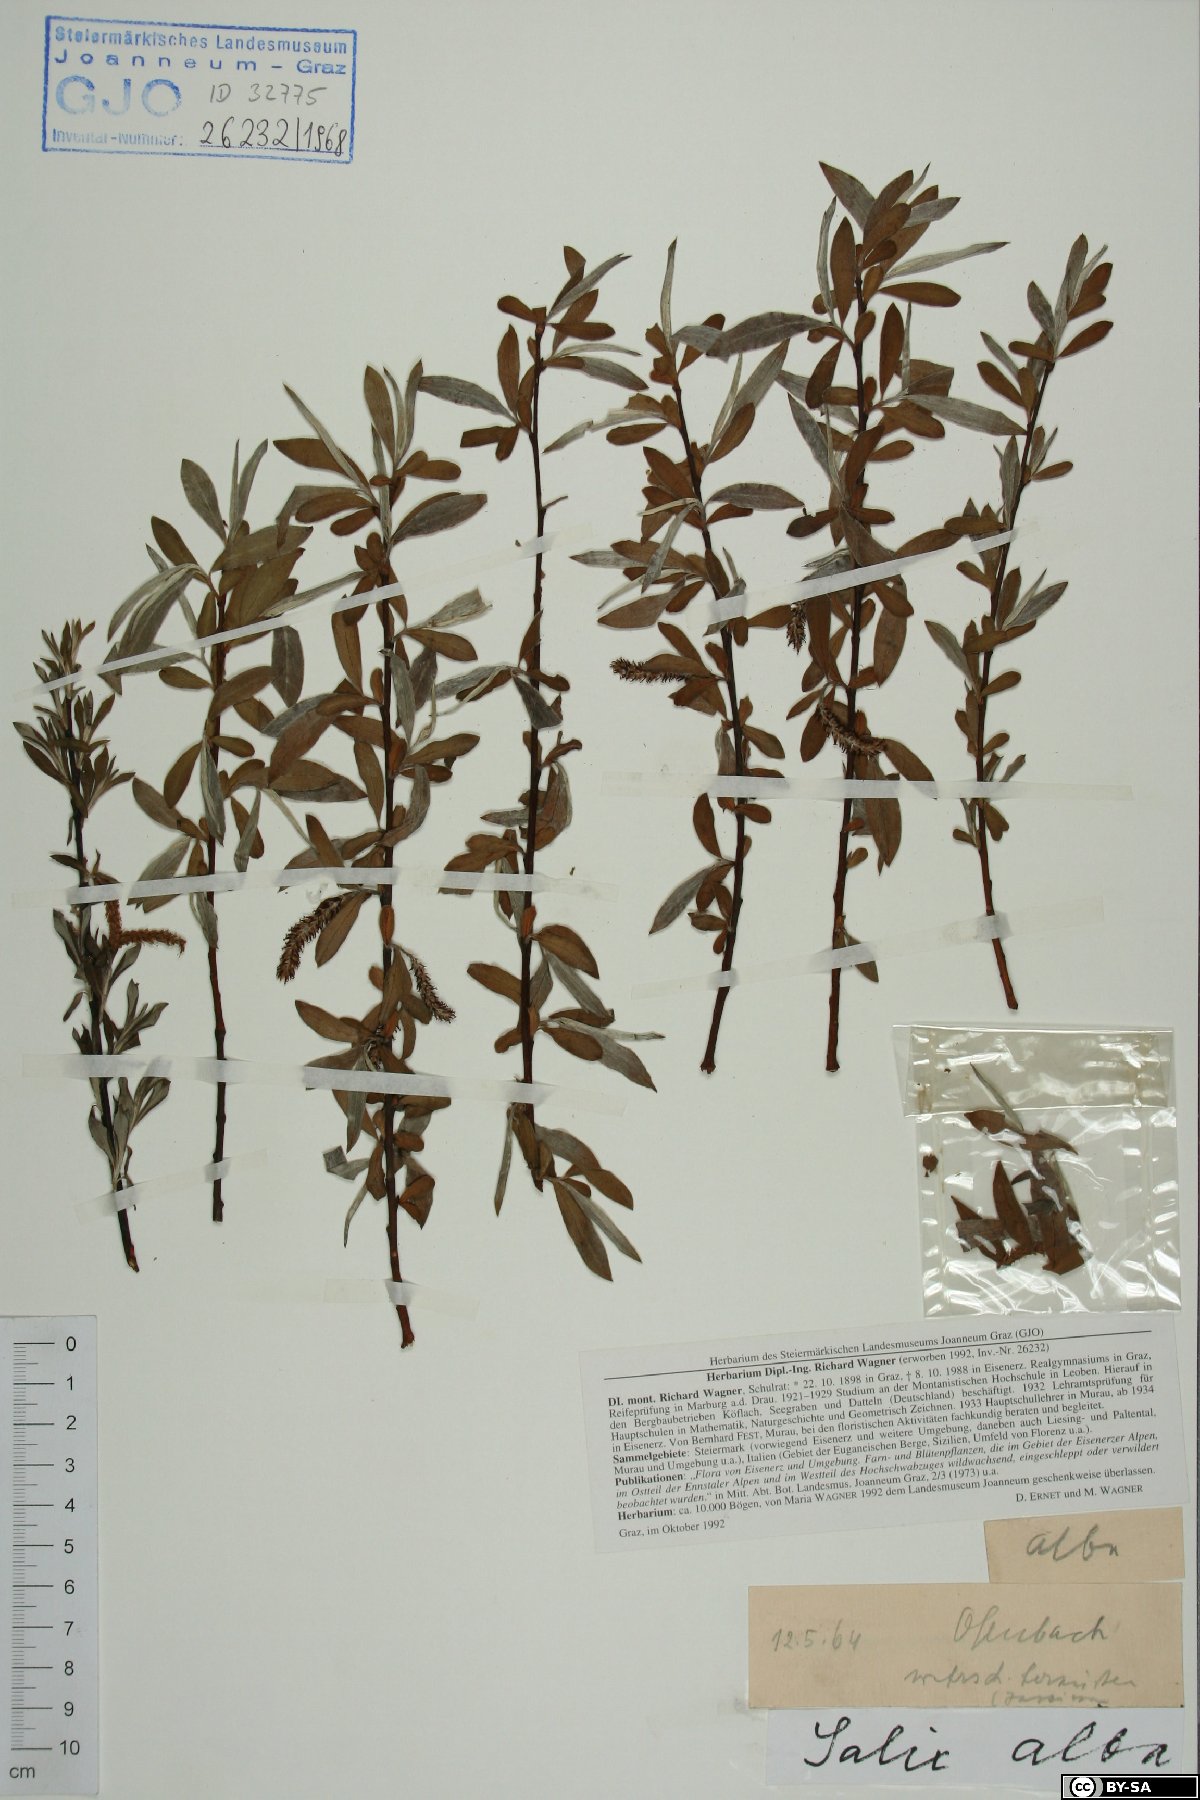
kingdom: Plantae
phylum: Tracheophyta
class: Magnoliopsida
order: Malpighiales
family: Salicaceae
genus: Salix
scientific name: Salix alba
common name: White willow
